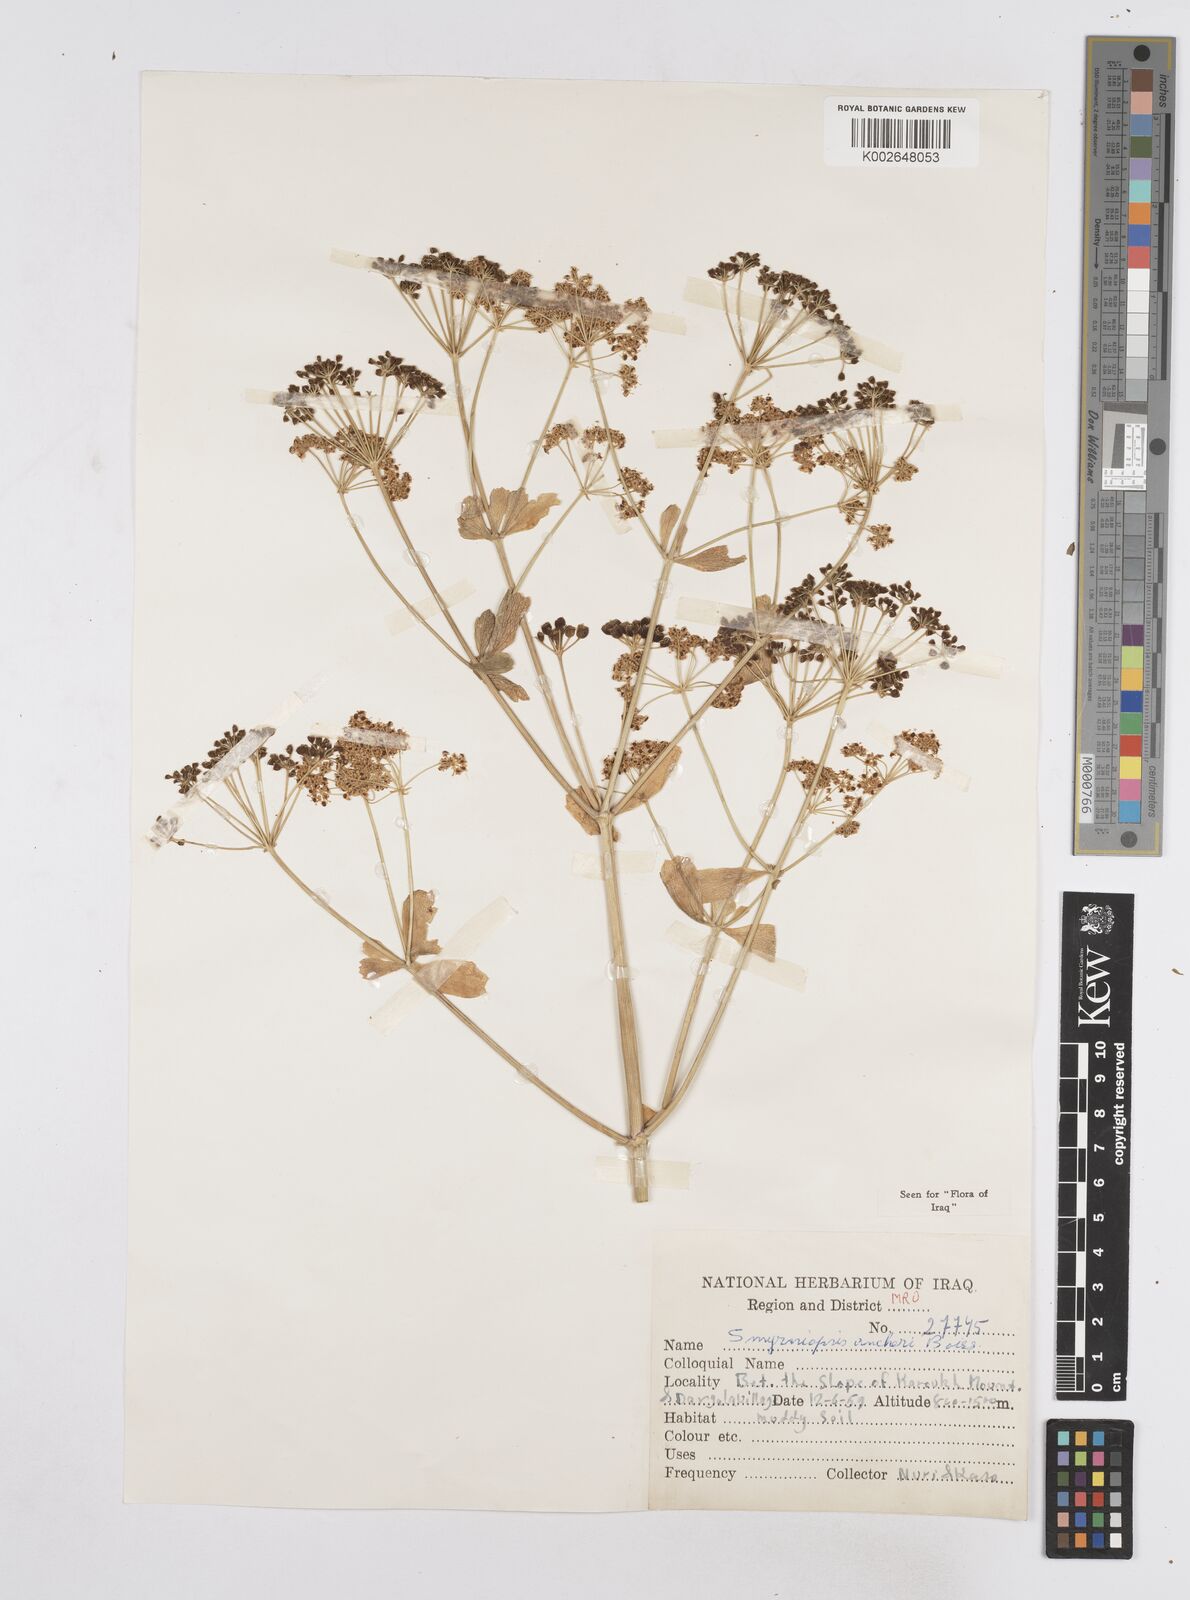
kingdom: Plantae
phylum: Tracheophyta
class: Magnoliopsida
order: Apiales
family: Apiaceae
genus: Smyrniopsis
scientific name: Smyrniopsis aucheri
